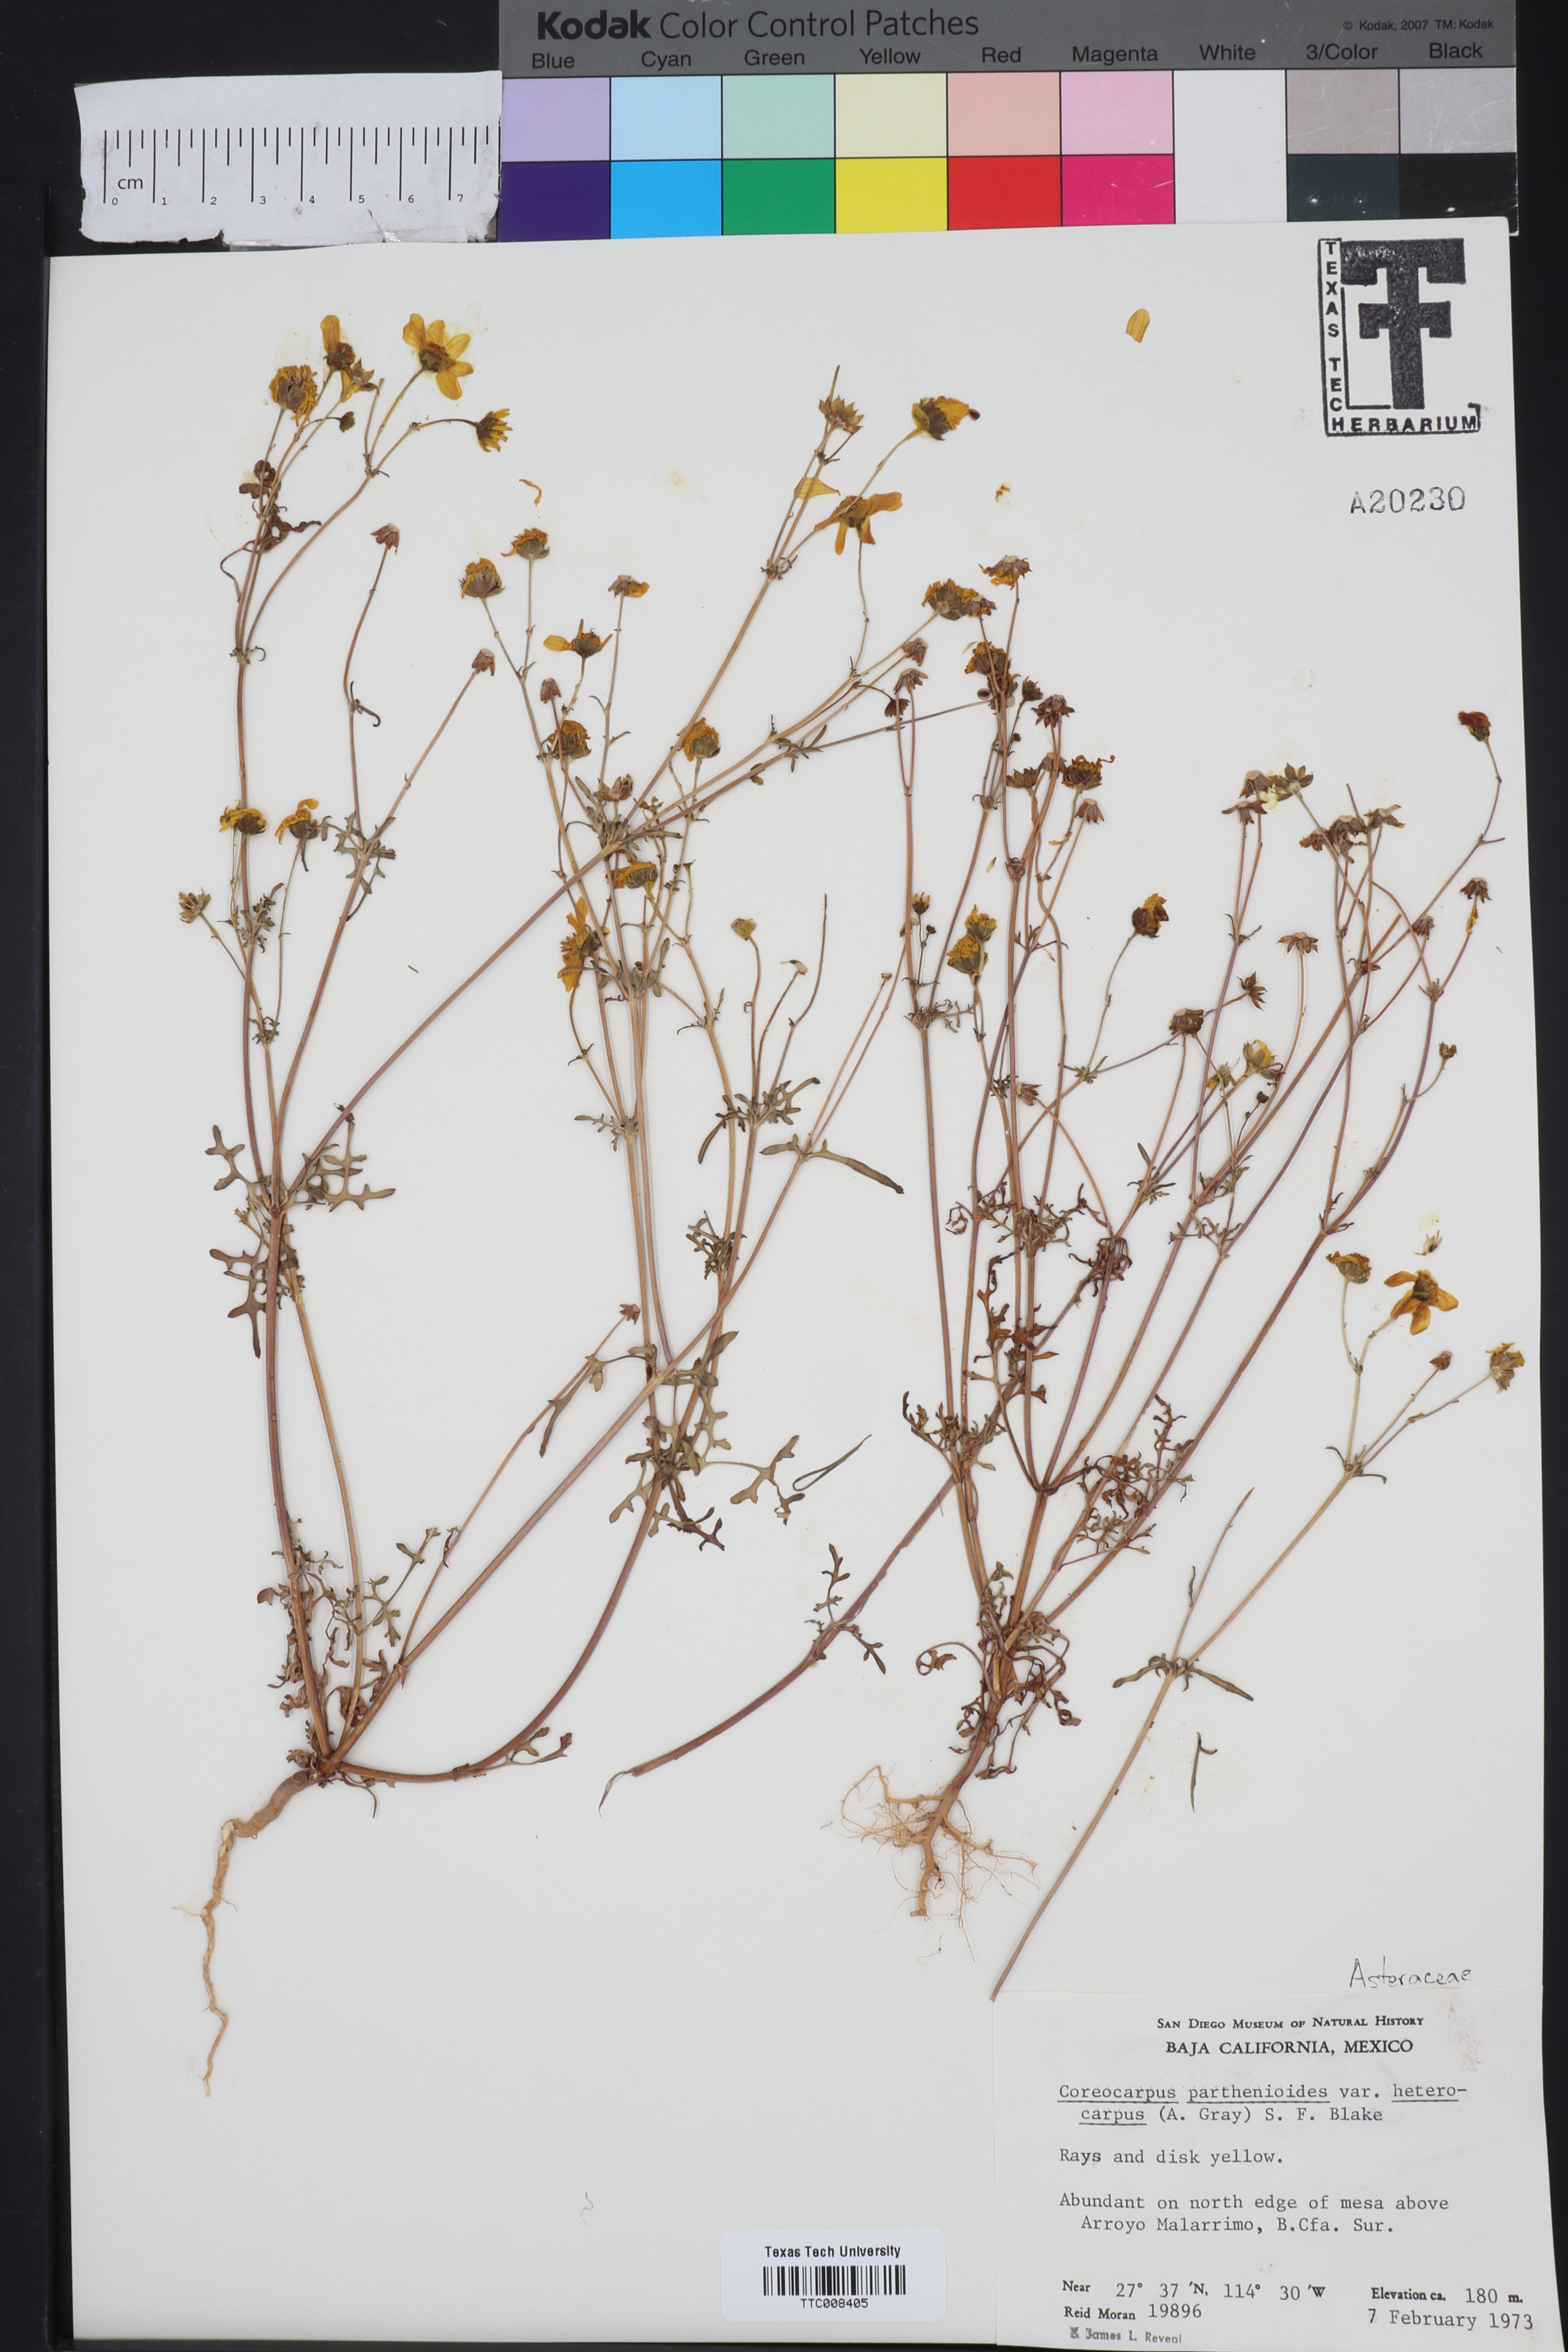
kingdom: Plantae
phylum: Tracheophyta
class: Magnoliopsida
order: Asterales
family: Asteraceae
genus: Coreocarpus
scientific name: Coreocarpus parthenioides
